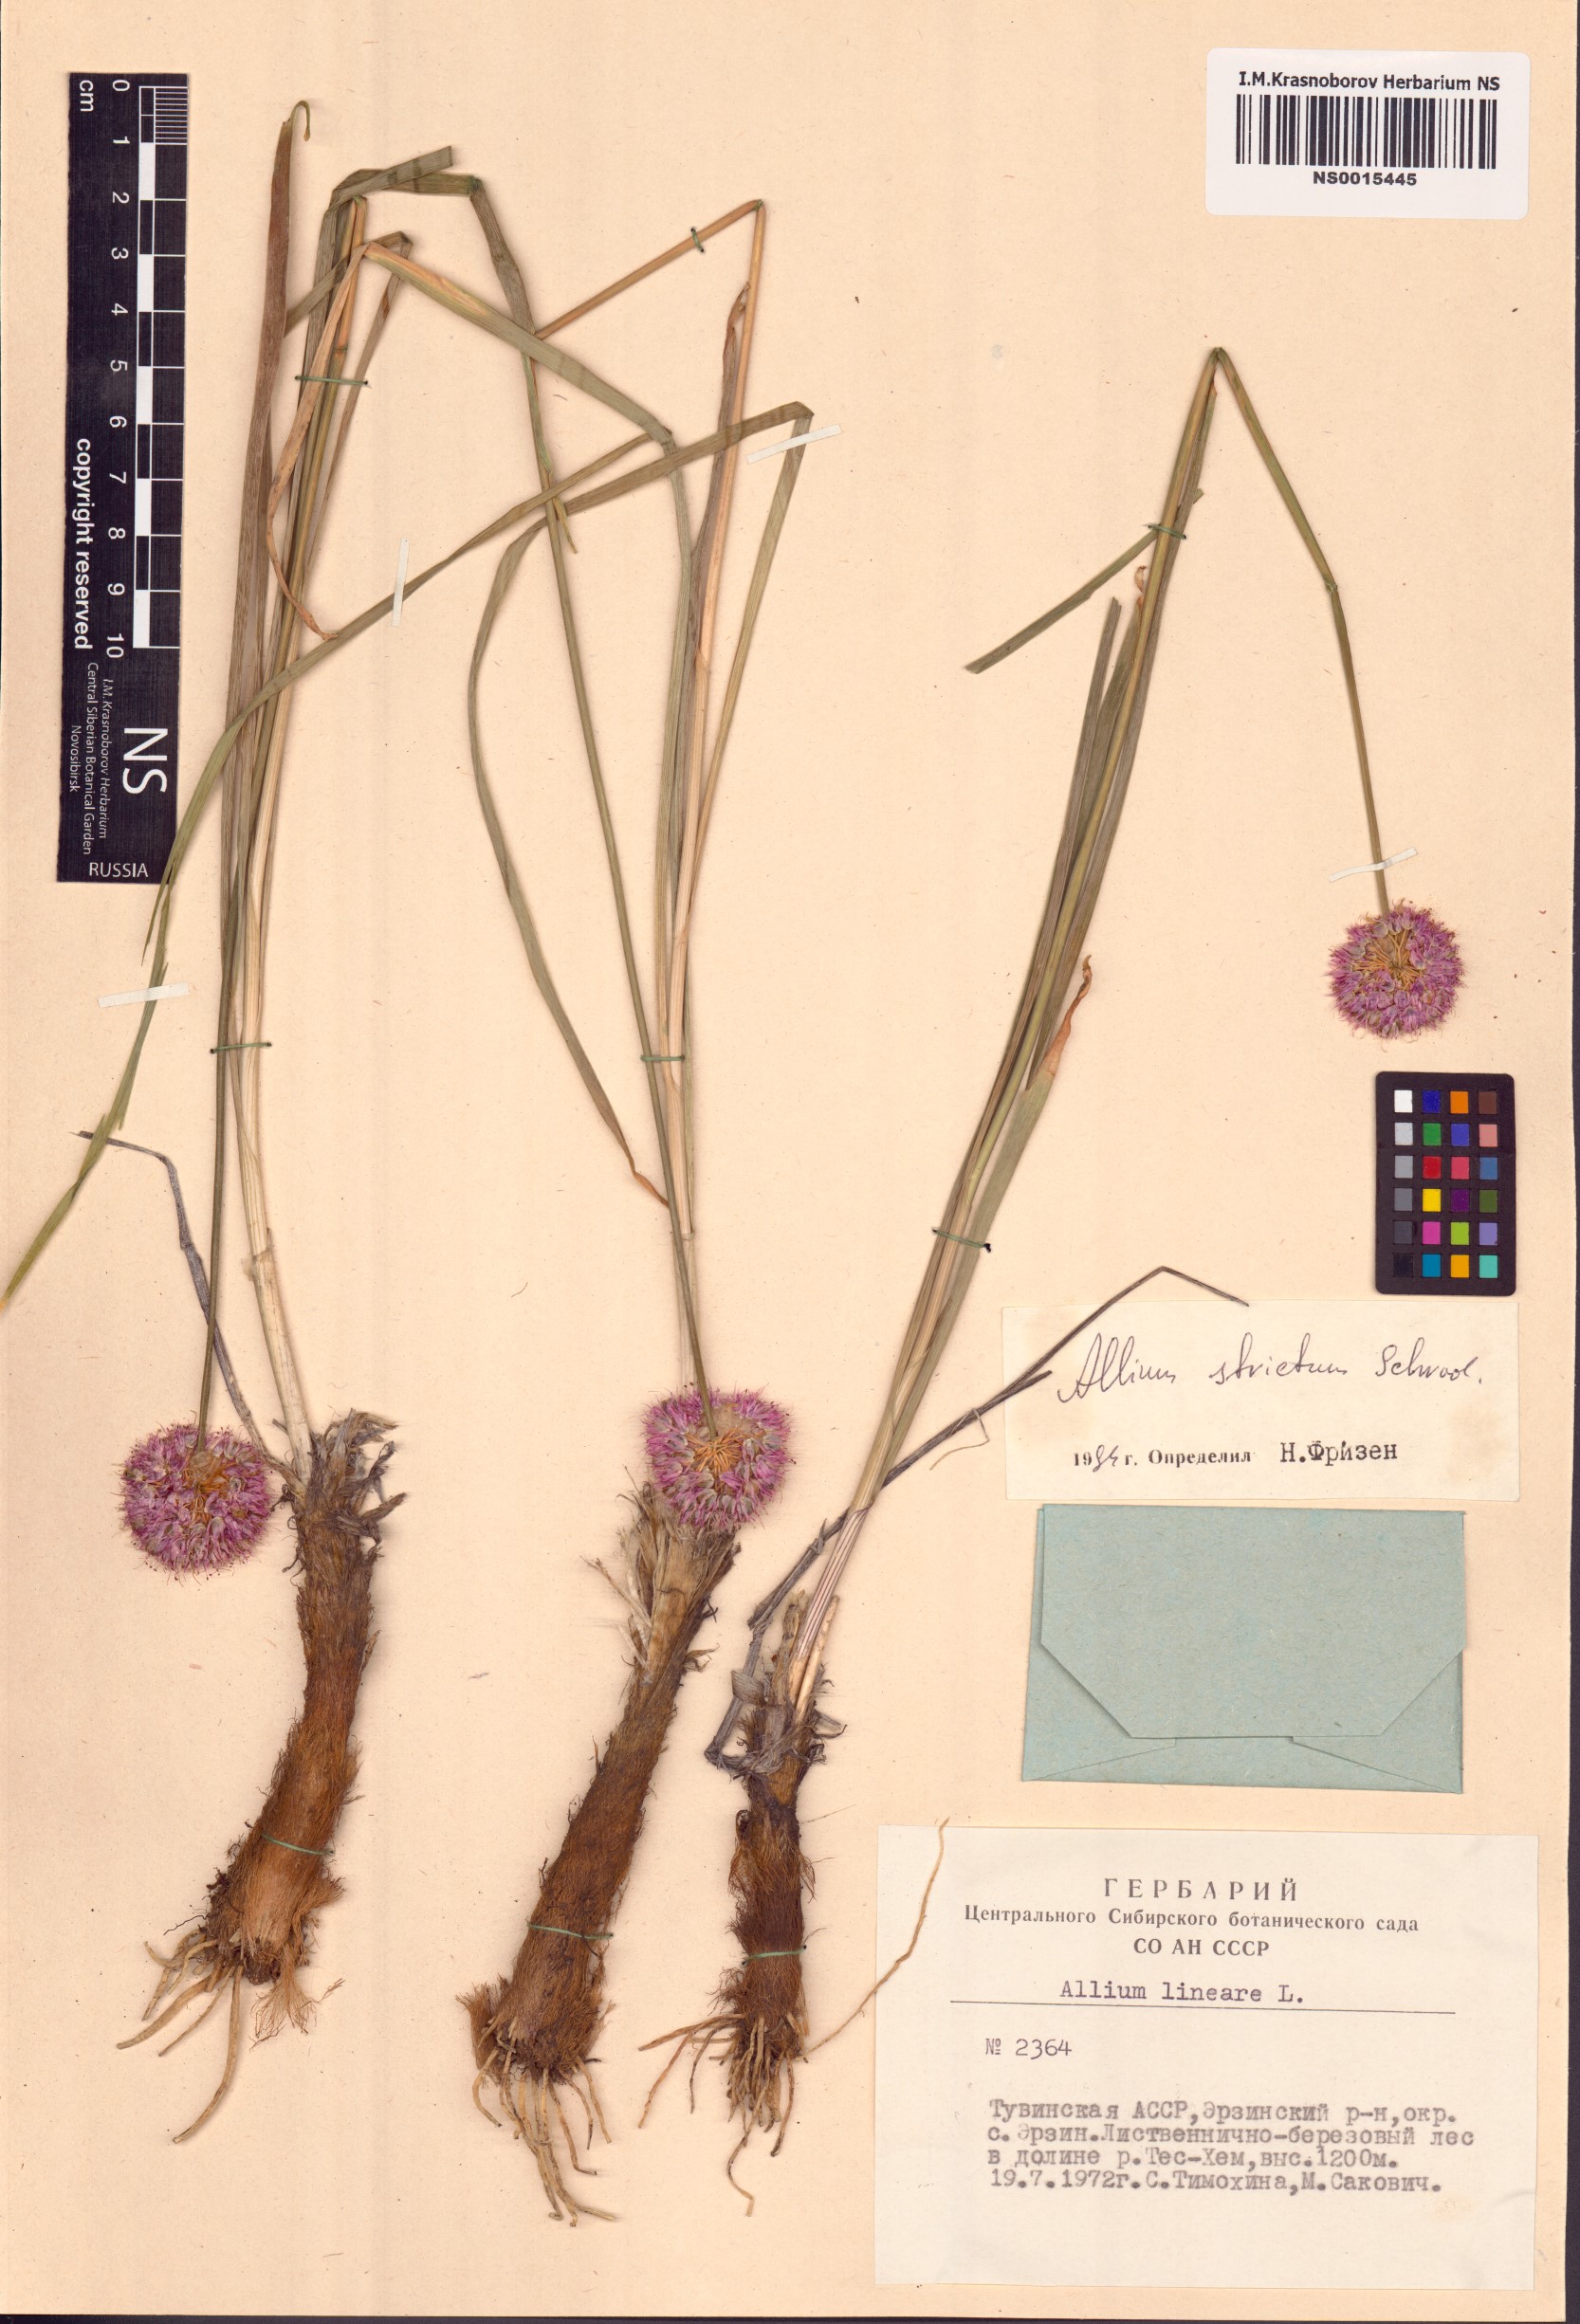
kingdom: Plantae
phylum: Tracheophyta
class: Liliopsida
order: Asparagales
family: Amaryllidaceae
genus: Allium
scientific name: Allium strictum
